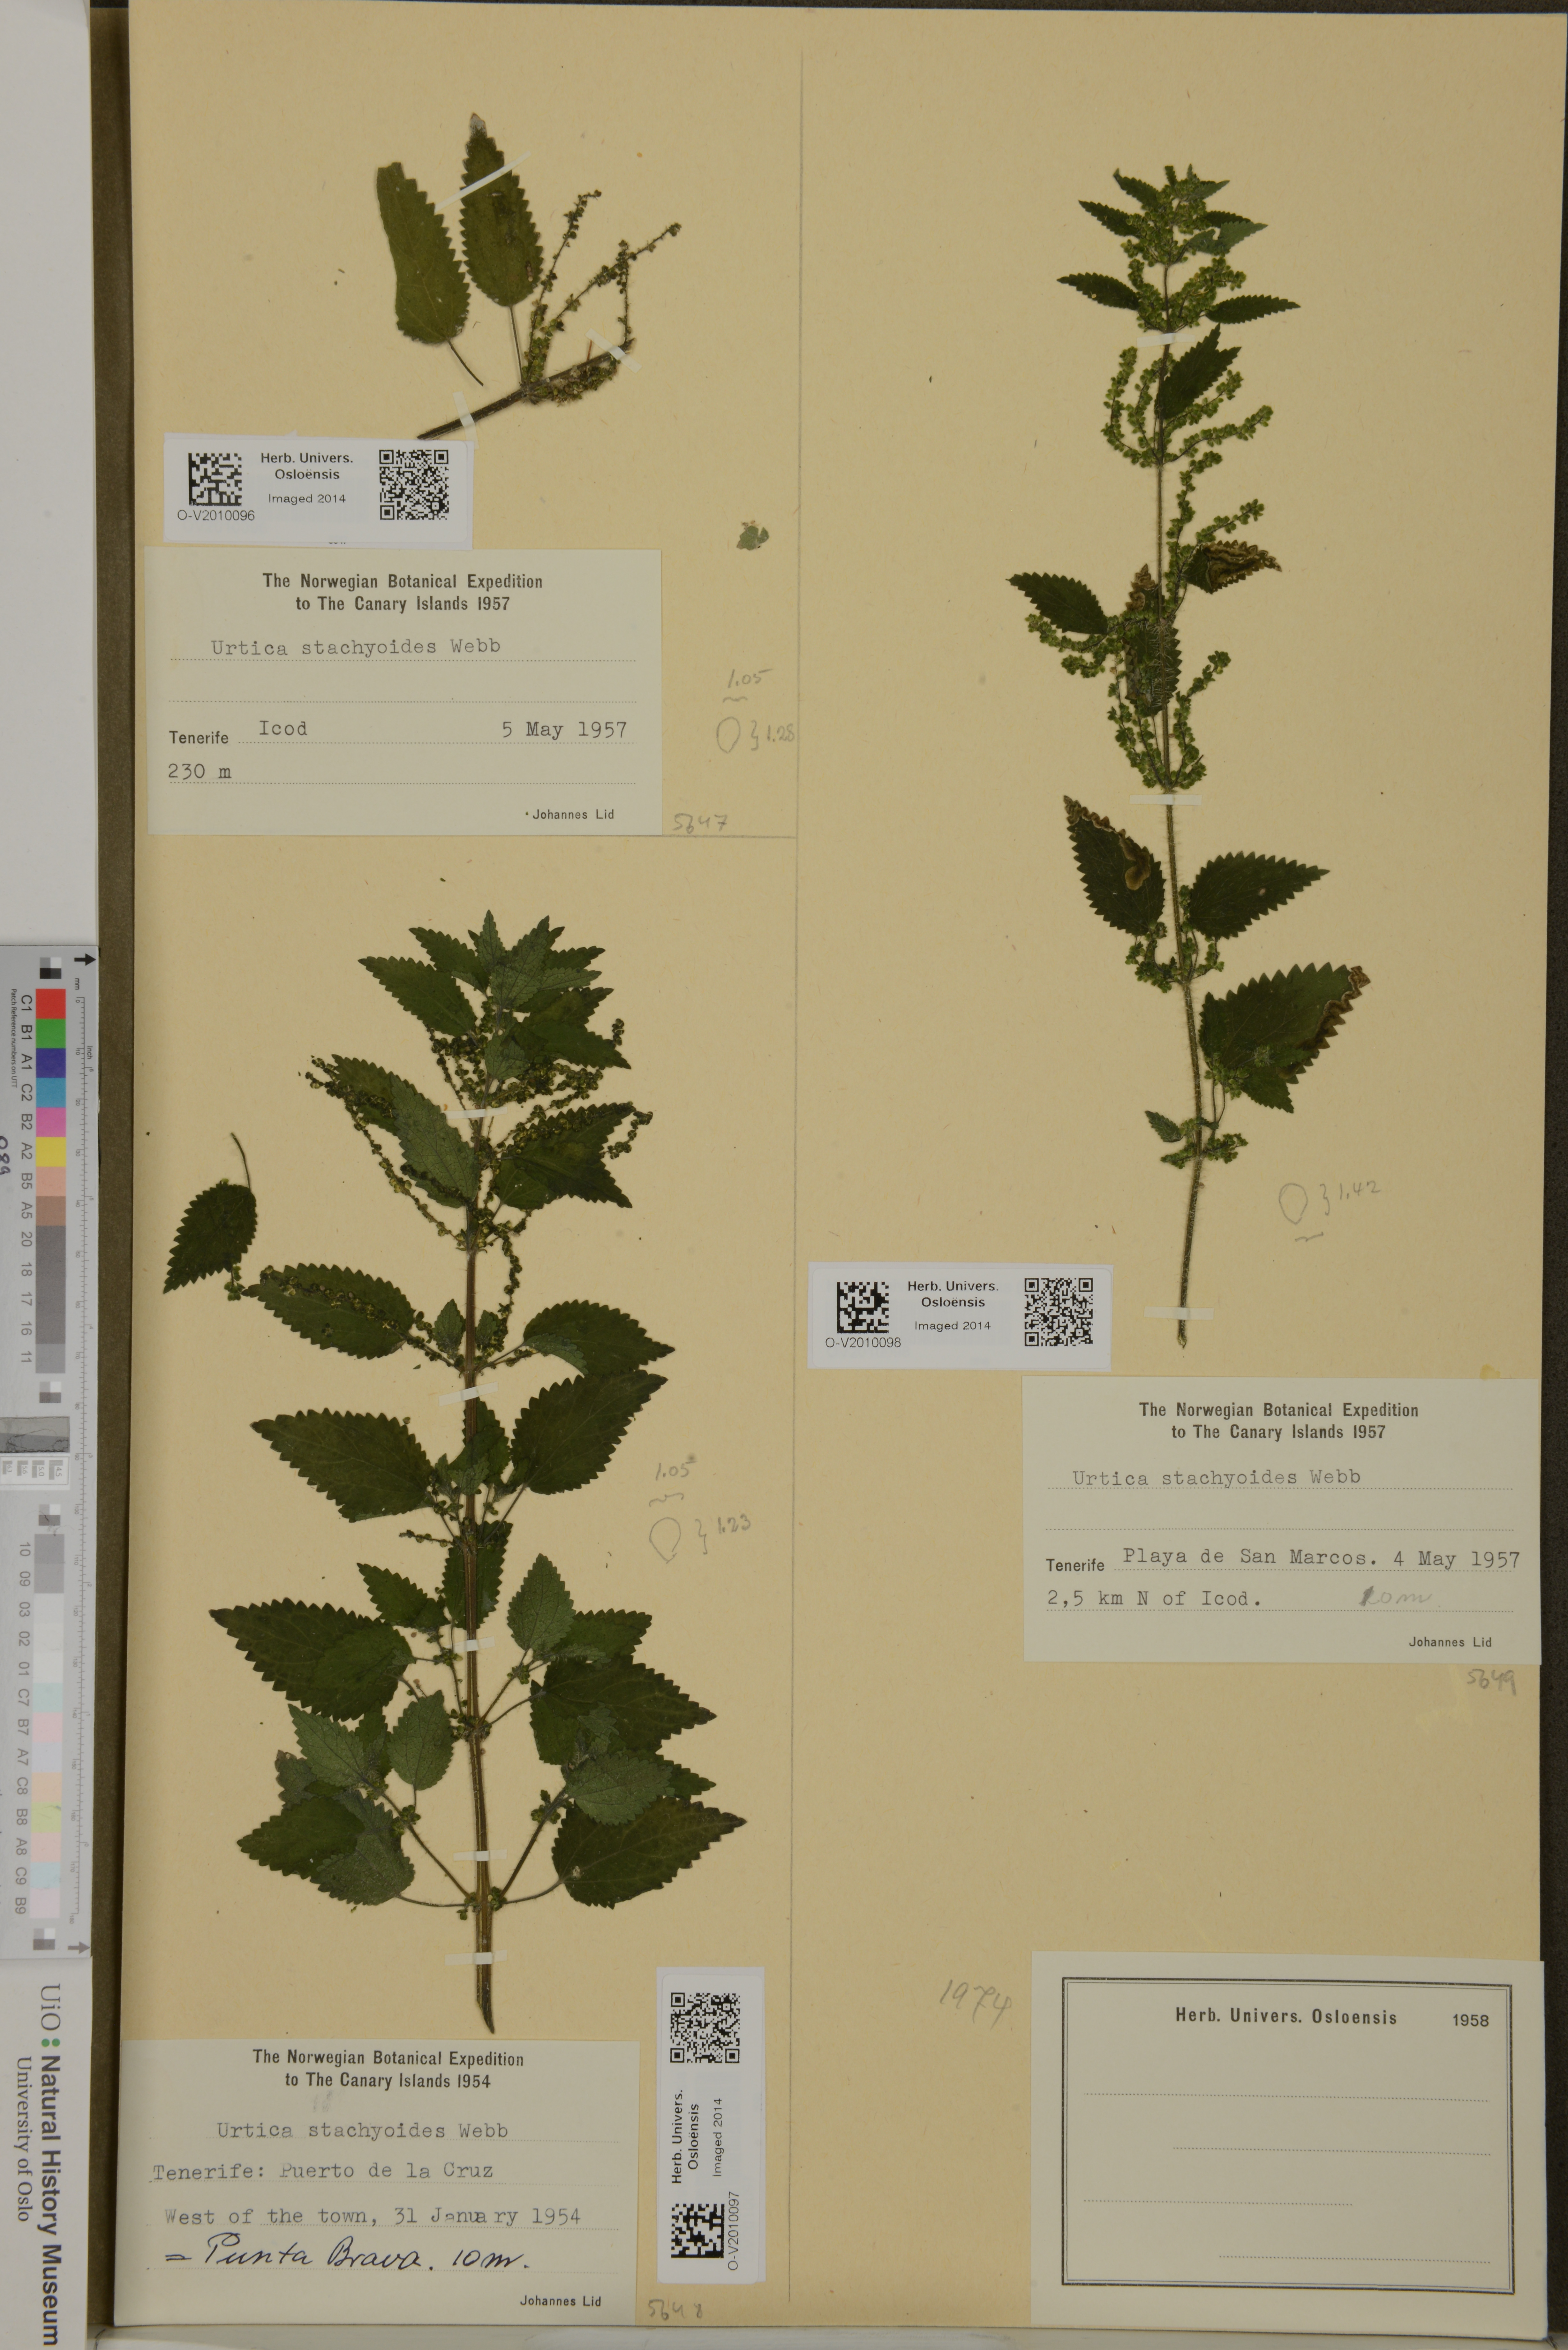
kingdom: Plantae
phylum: Tracheophyta
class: Magnoliopsida
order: Rosales
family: Urticaceae
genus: Urtica
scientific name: Urtica stachyoides
